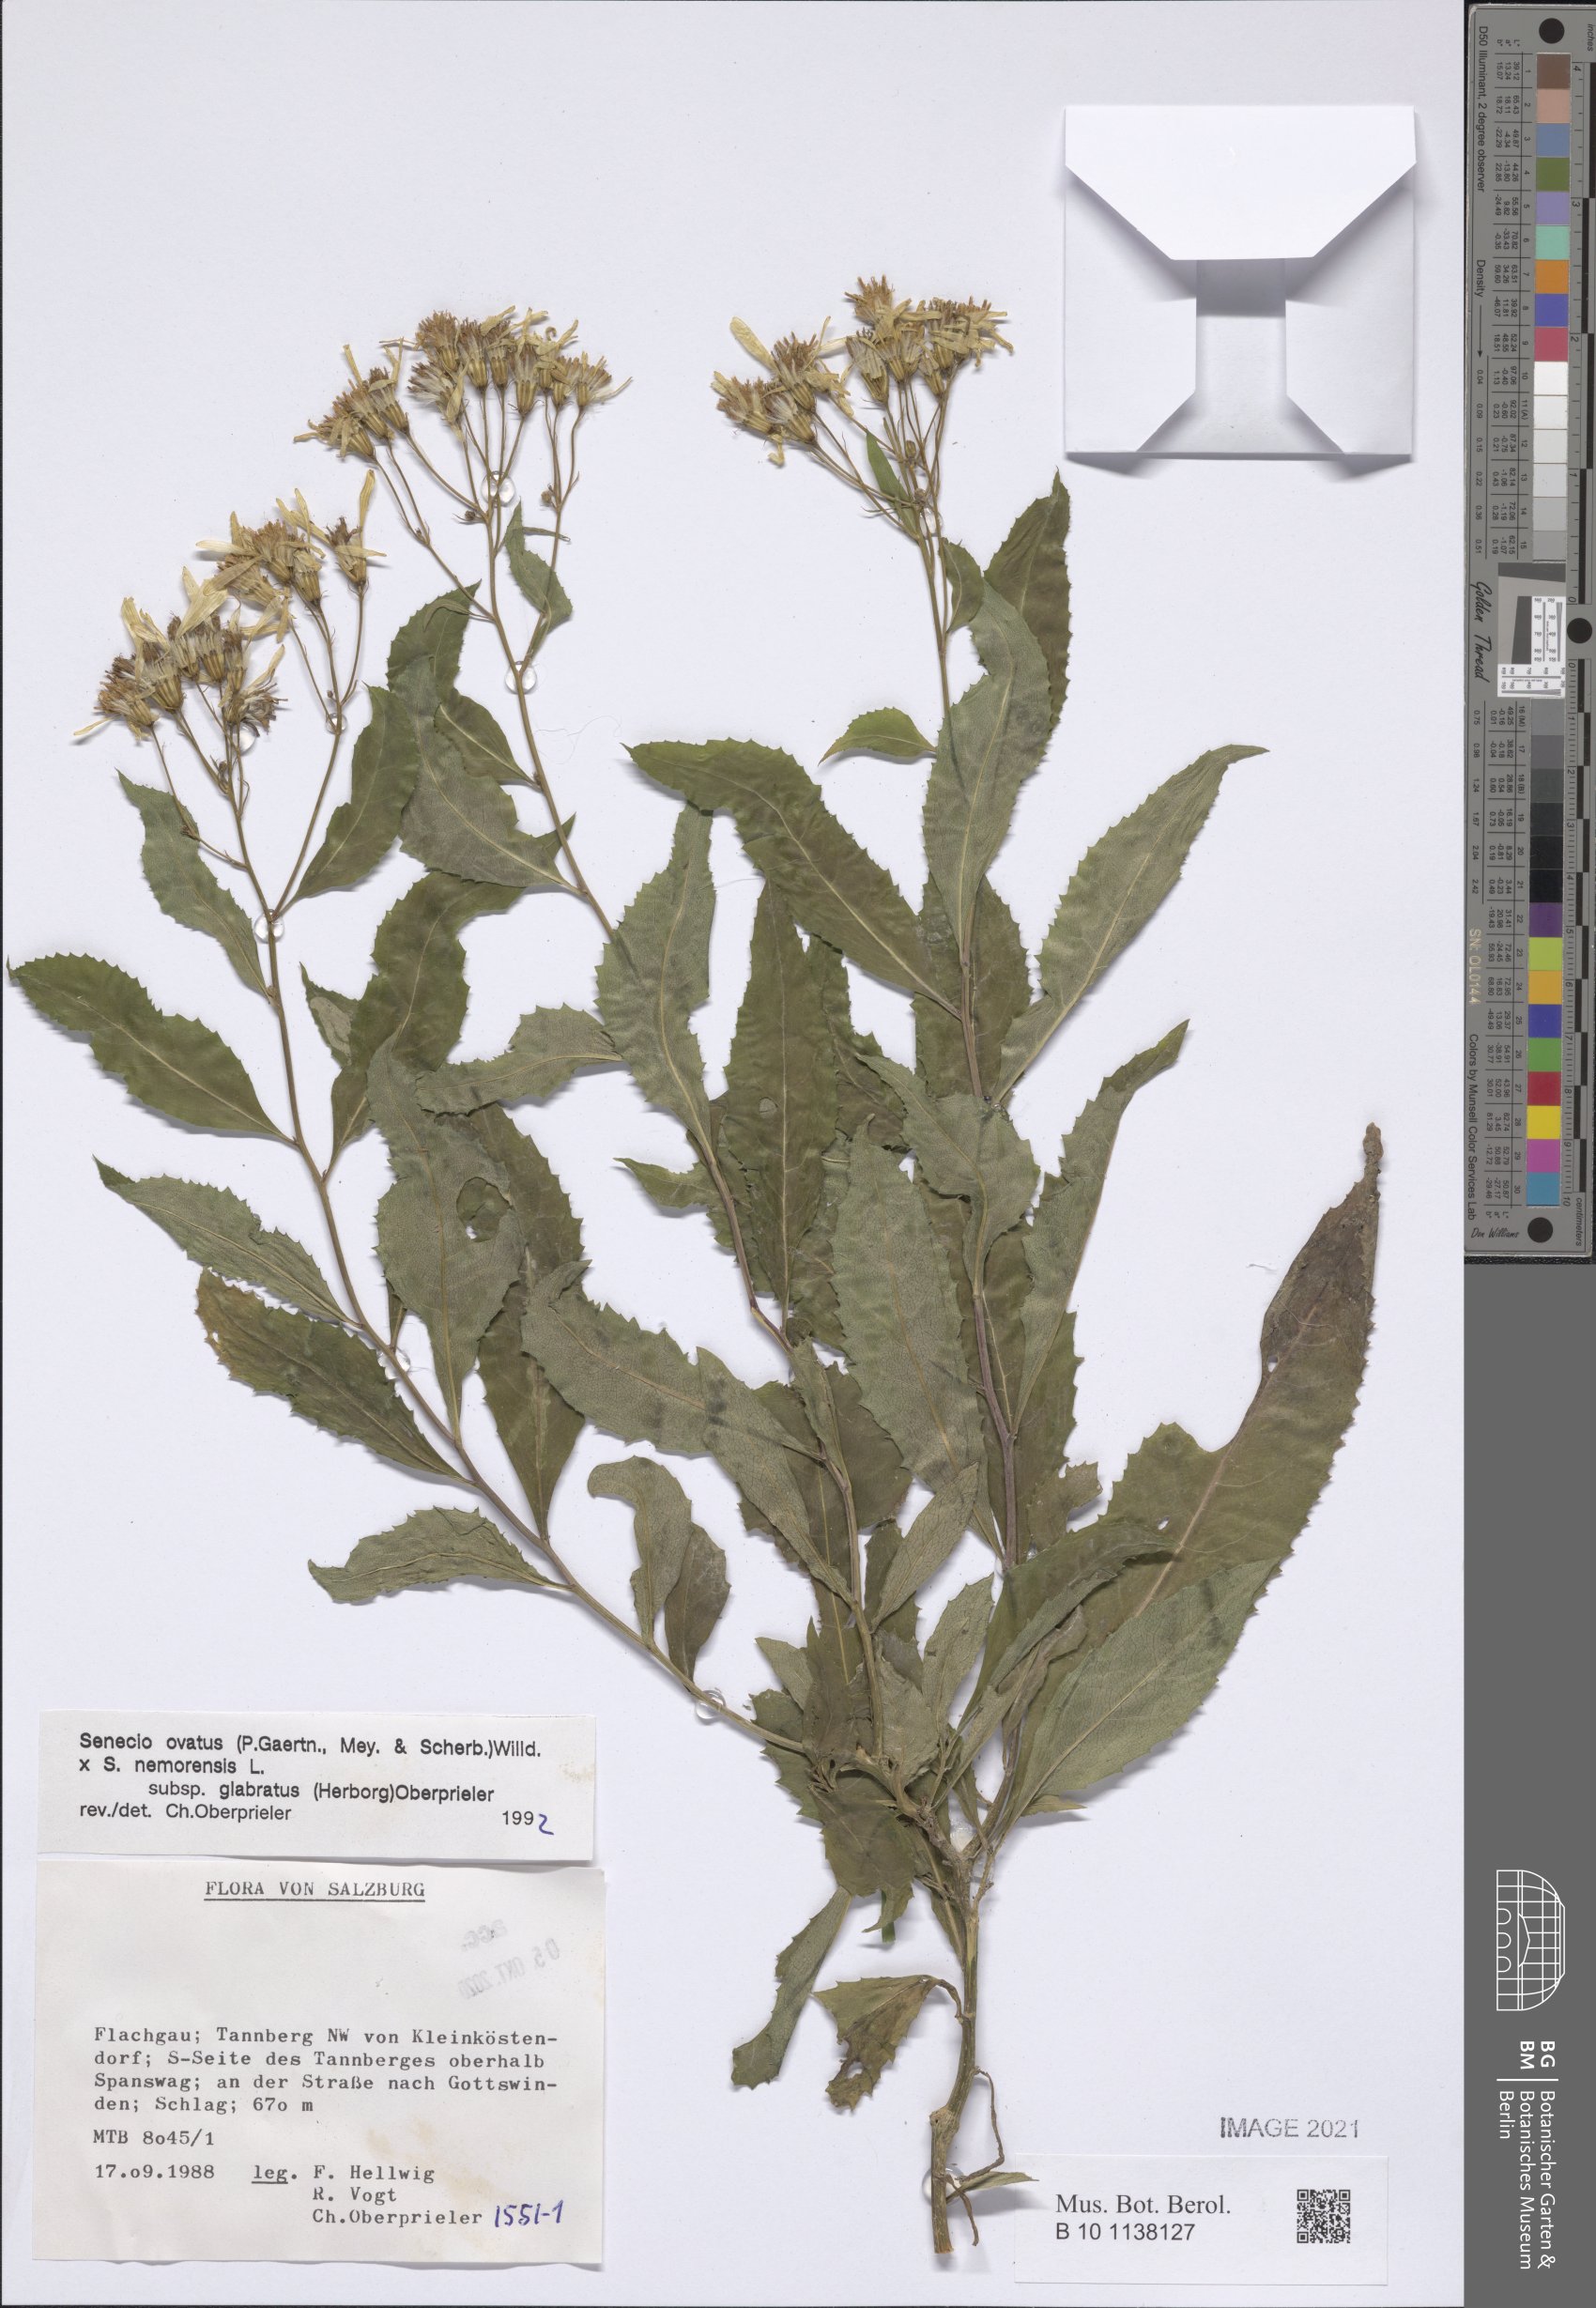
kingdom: Plantae
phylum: Tracheophyta
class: Magnoliopsida
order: Asterales
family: Asteraceae
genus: Senecio
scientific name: Senecio ovatus
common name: Wood ragwort
